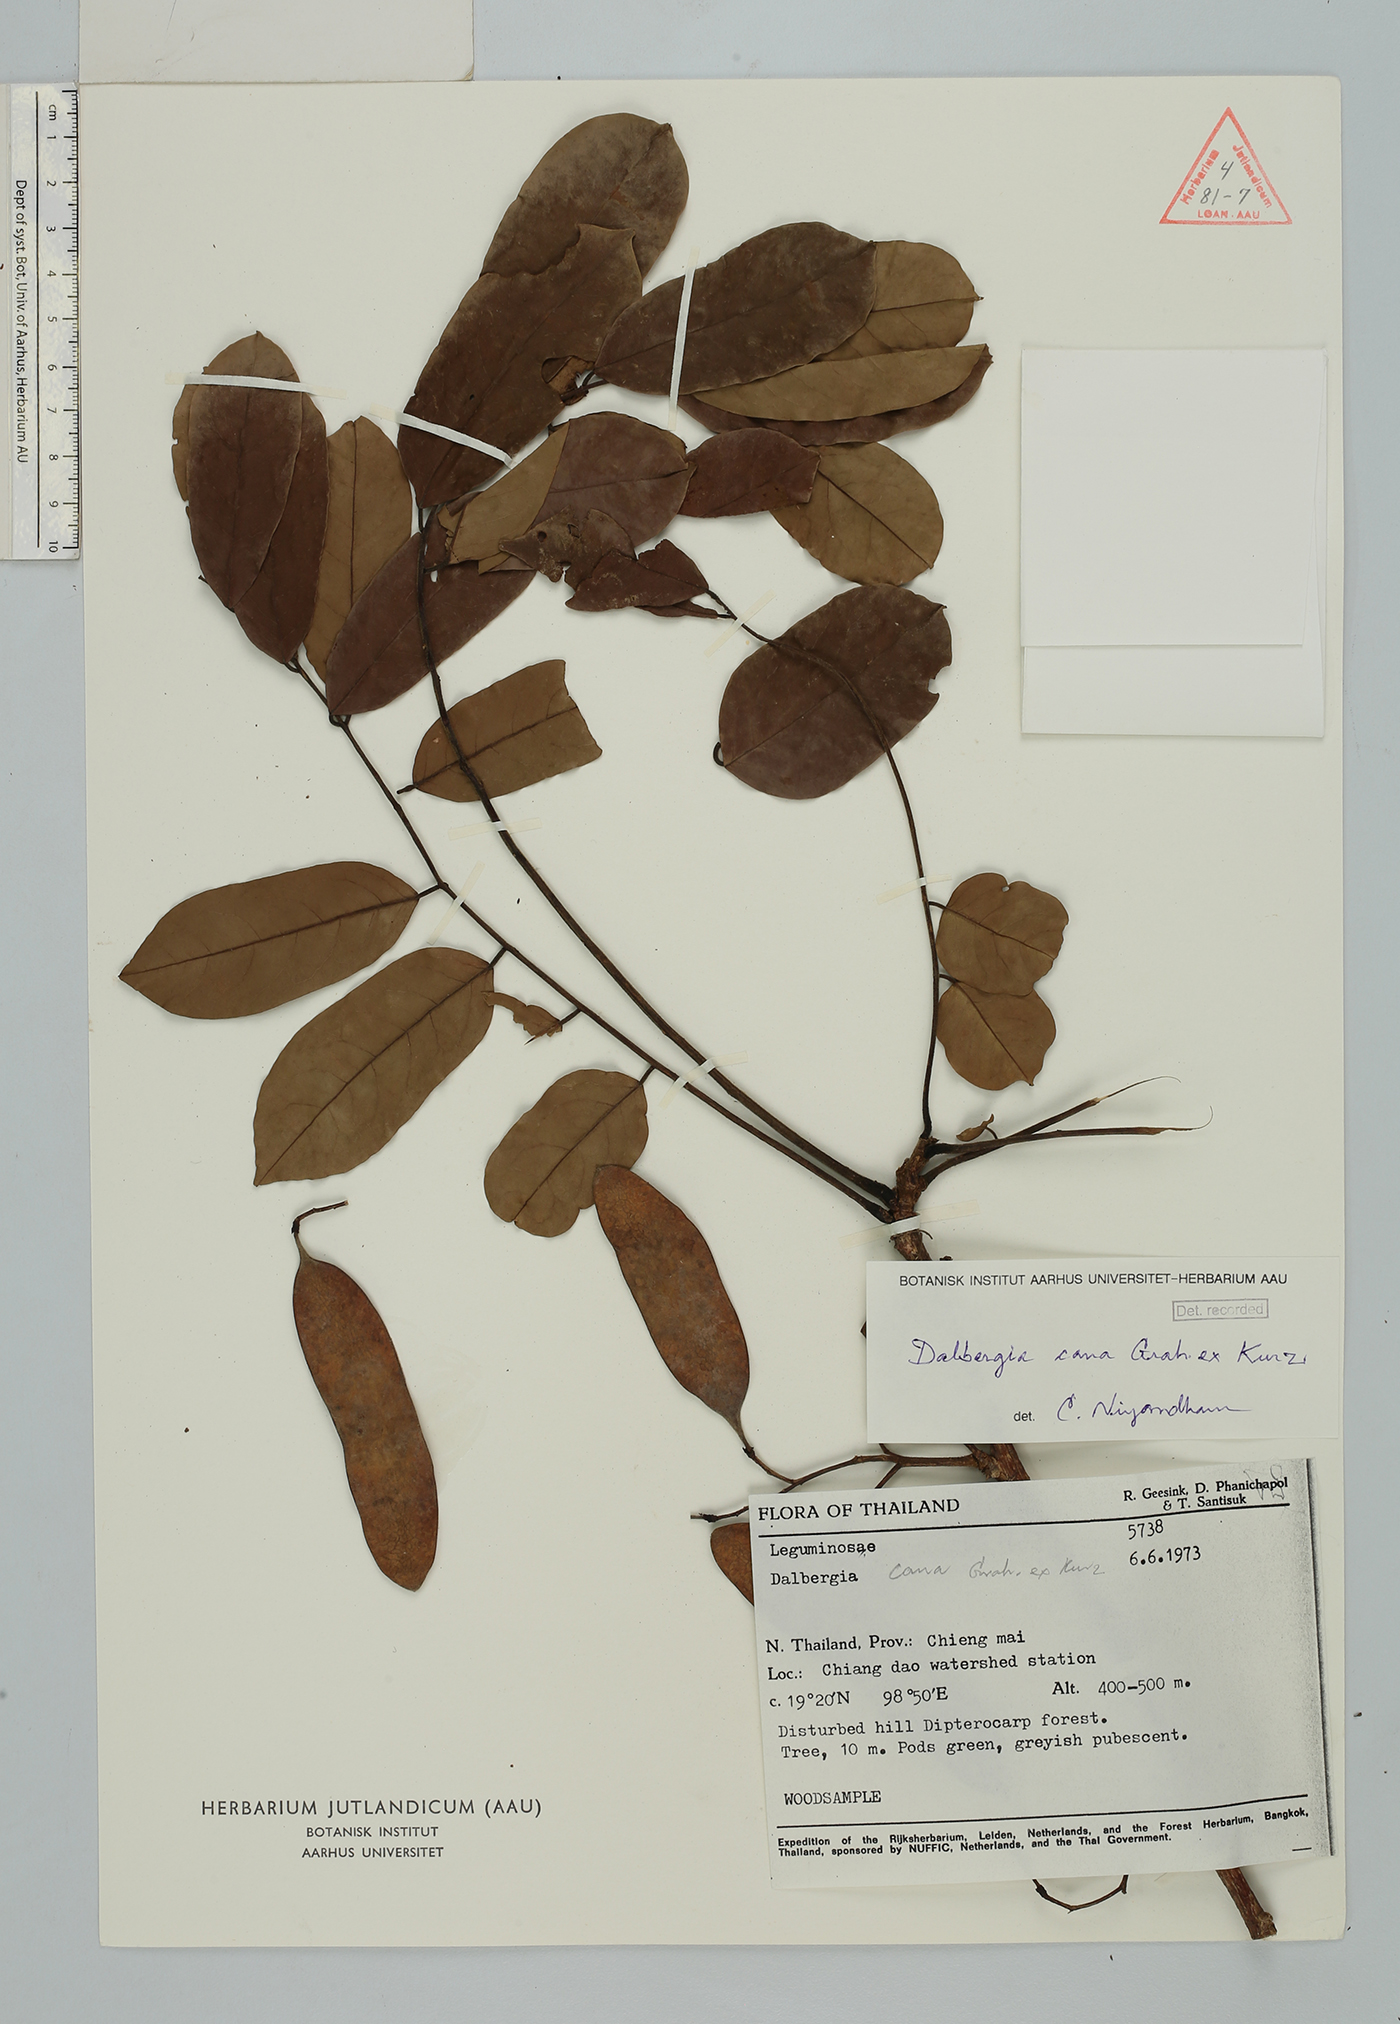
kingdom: Plantae
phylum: Tracheophyta
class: Magnoliopsida
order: Fabales
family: Fabaceae
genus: Dalbergia
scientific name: Dalbergia cana
